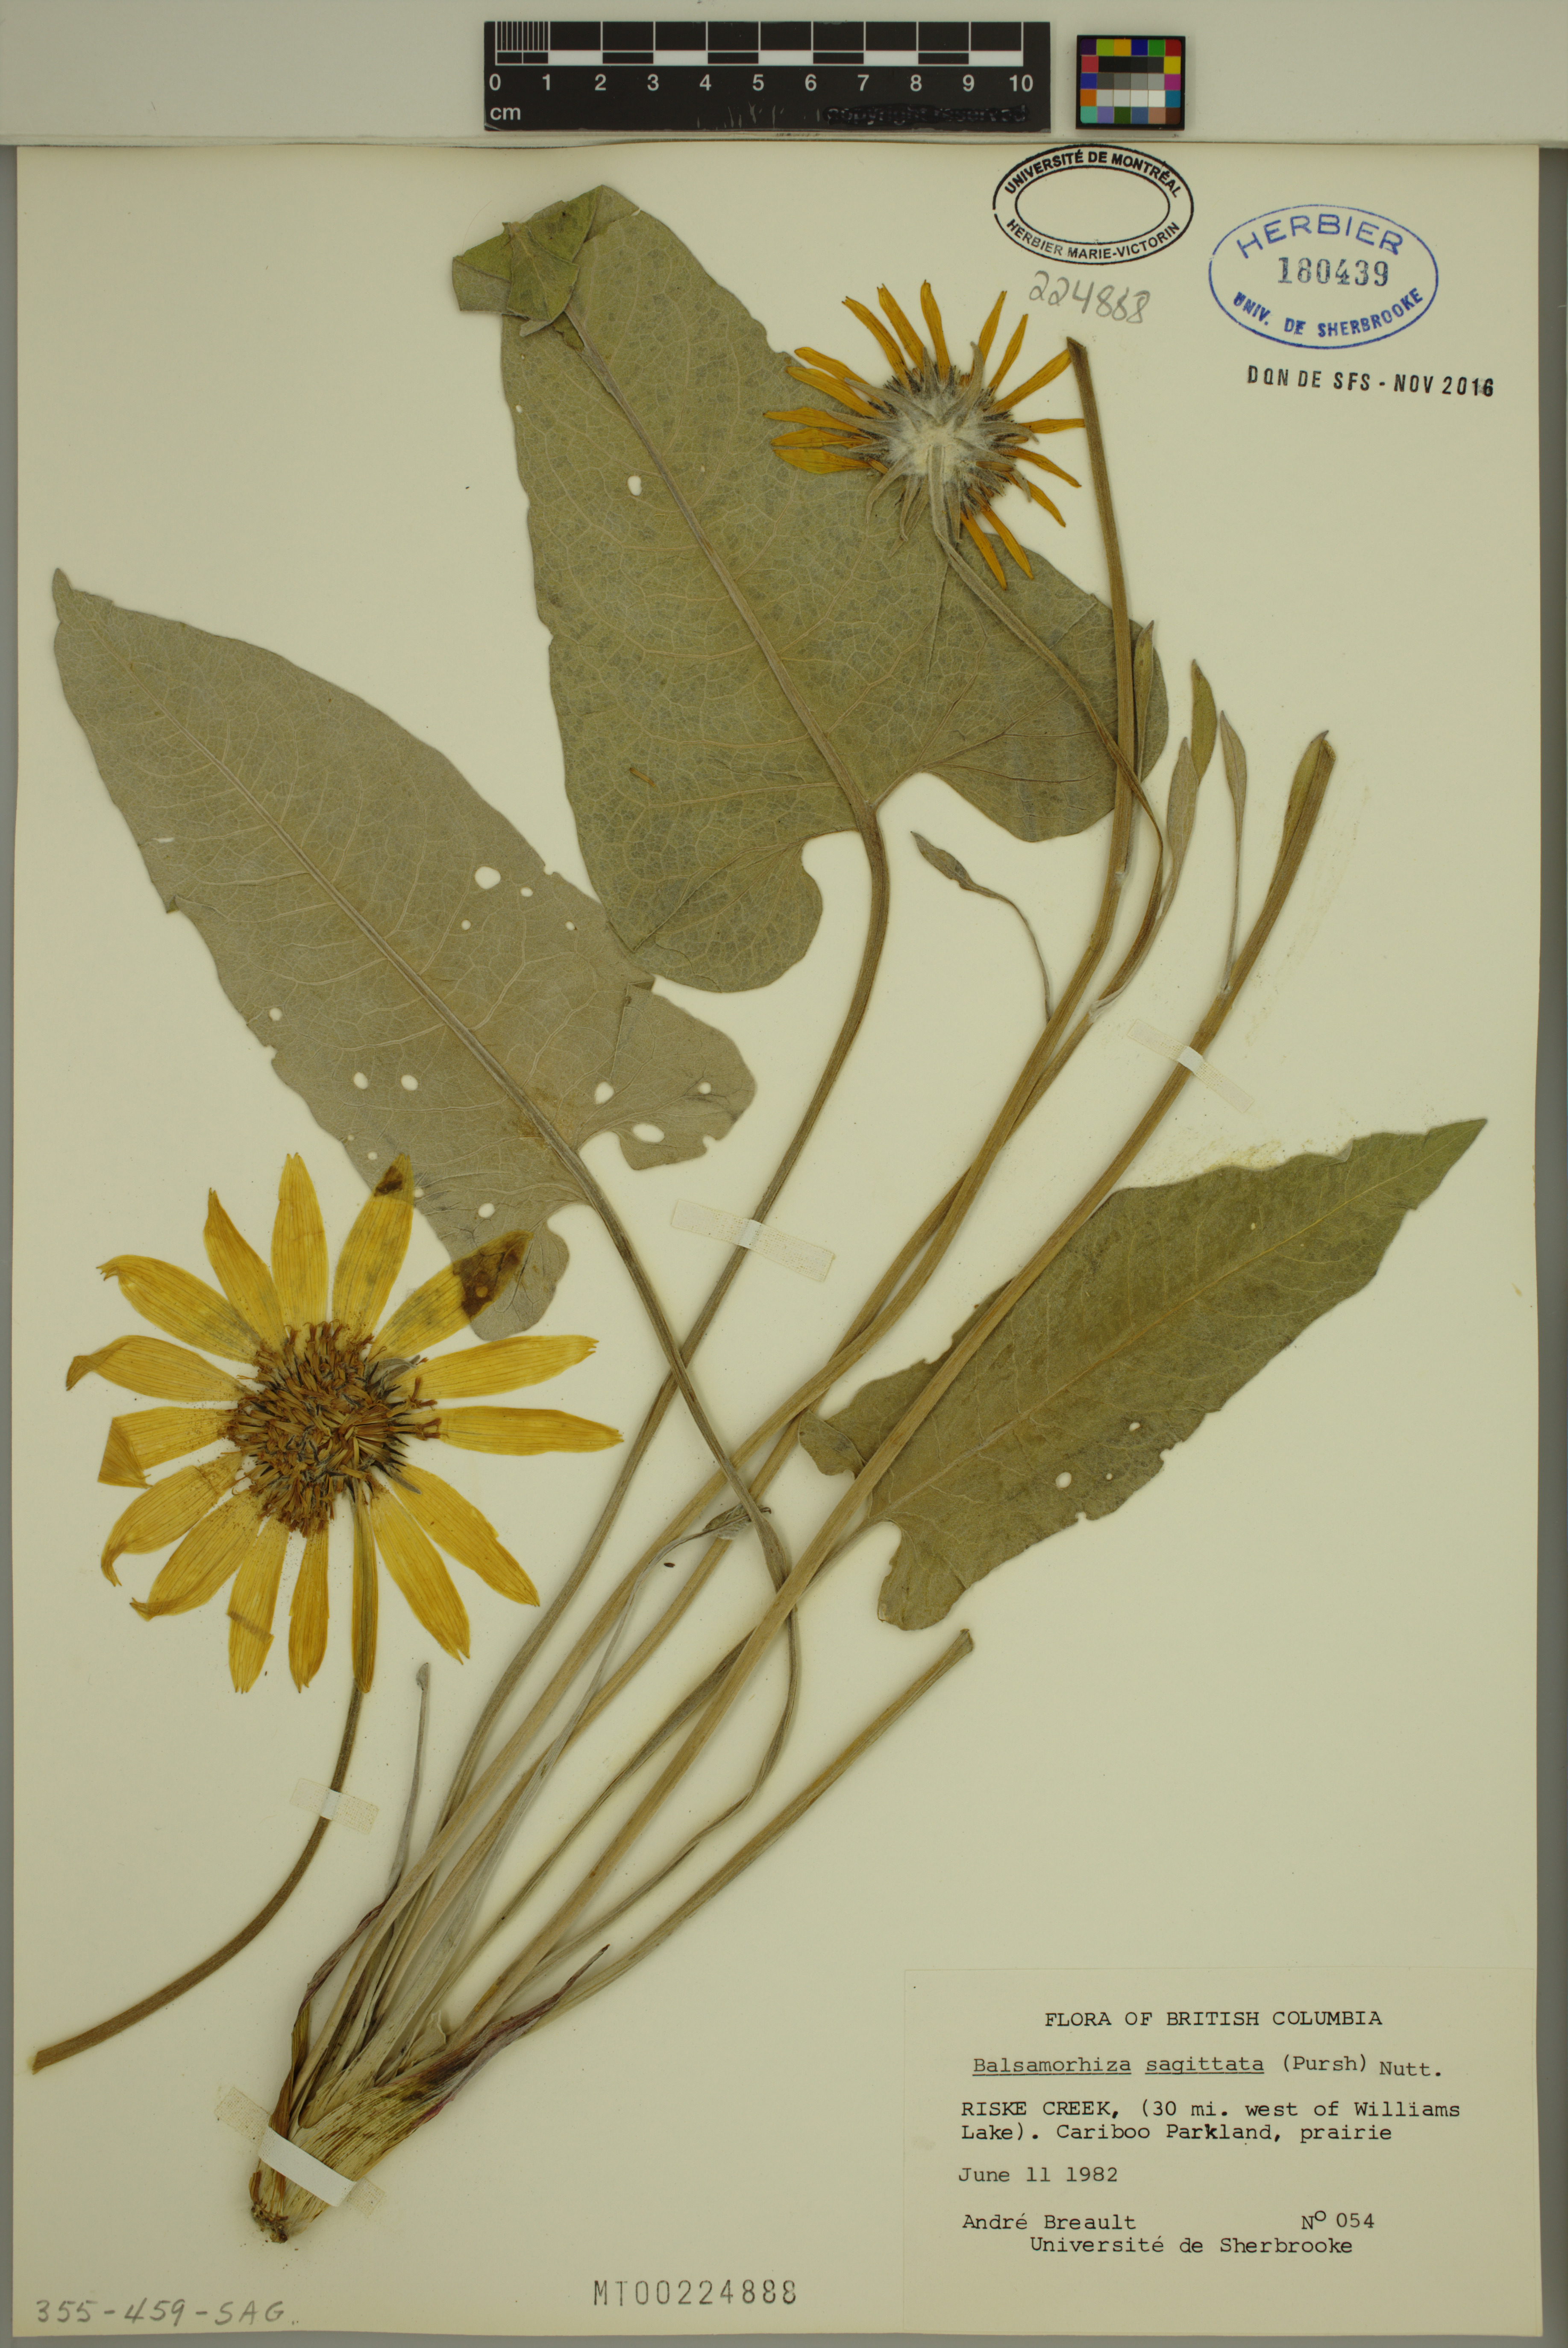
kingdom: Plantae
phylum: Tracheophyta
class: Magnoliopsida
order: Asterales
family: Asteraceae
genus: Wyethia
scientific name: Wyethia sagittata
